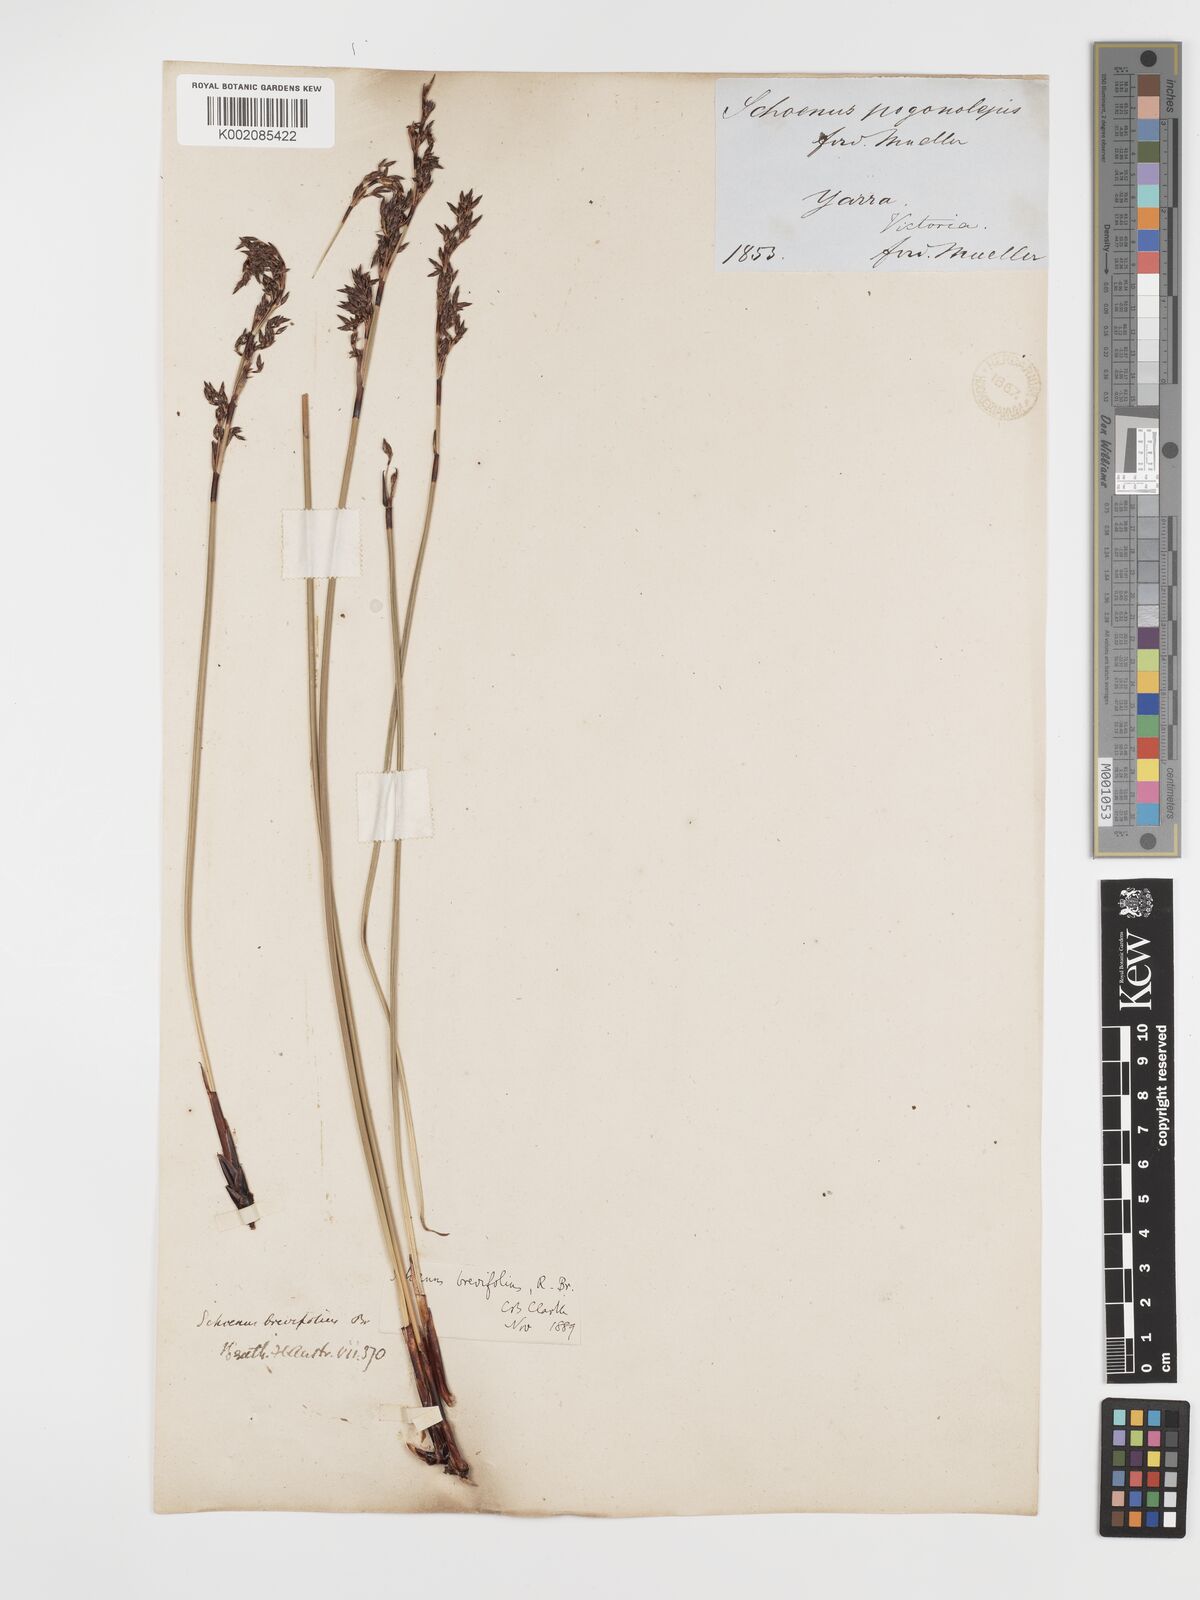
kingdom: Plantae
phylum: Tracheophyta
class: Liliopsida
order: Poales
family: Cyperaceae
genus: Schoenus
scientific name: Schoenus brevifolius
